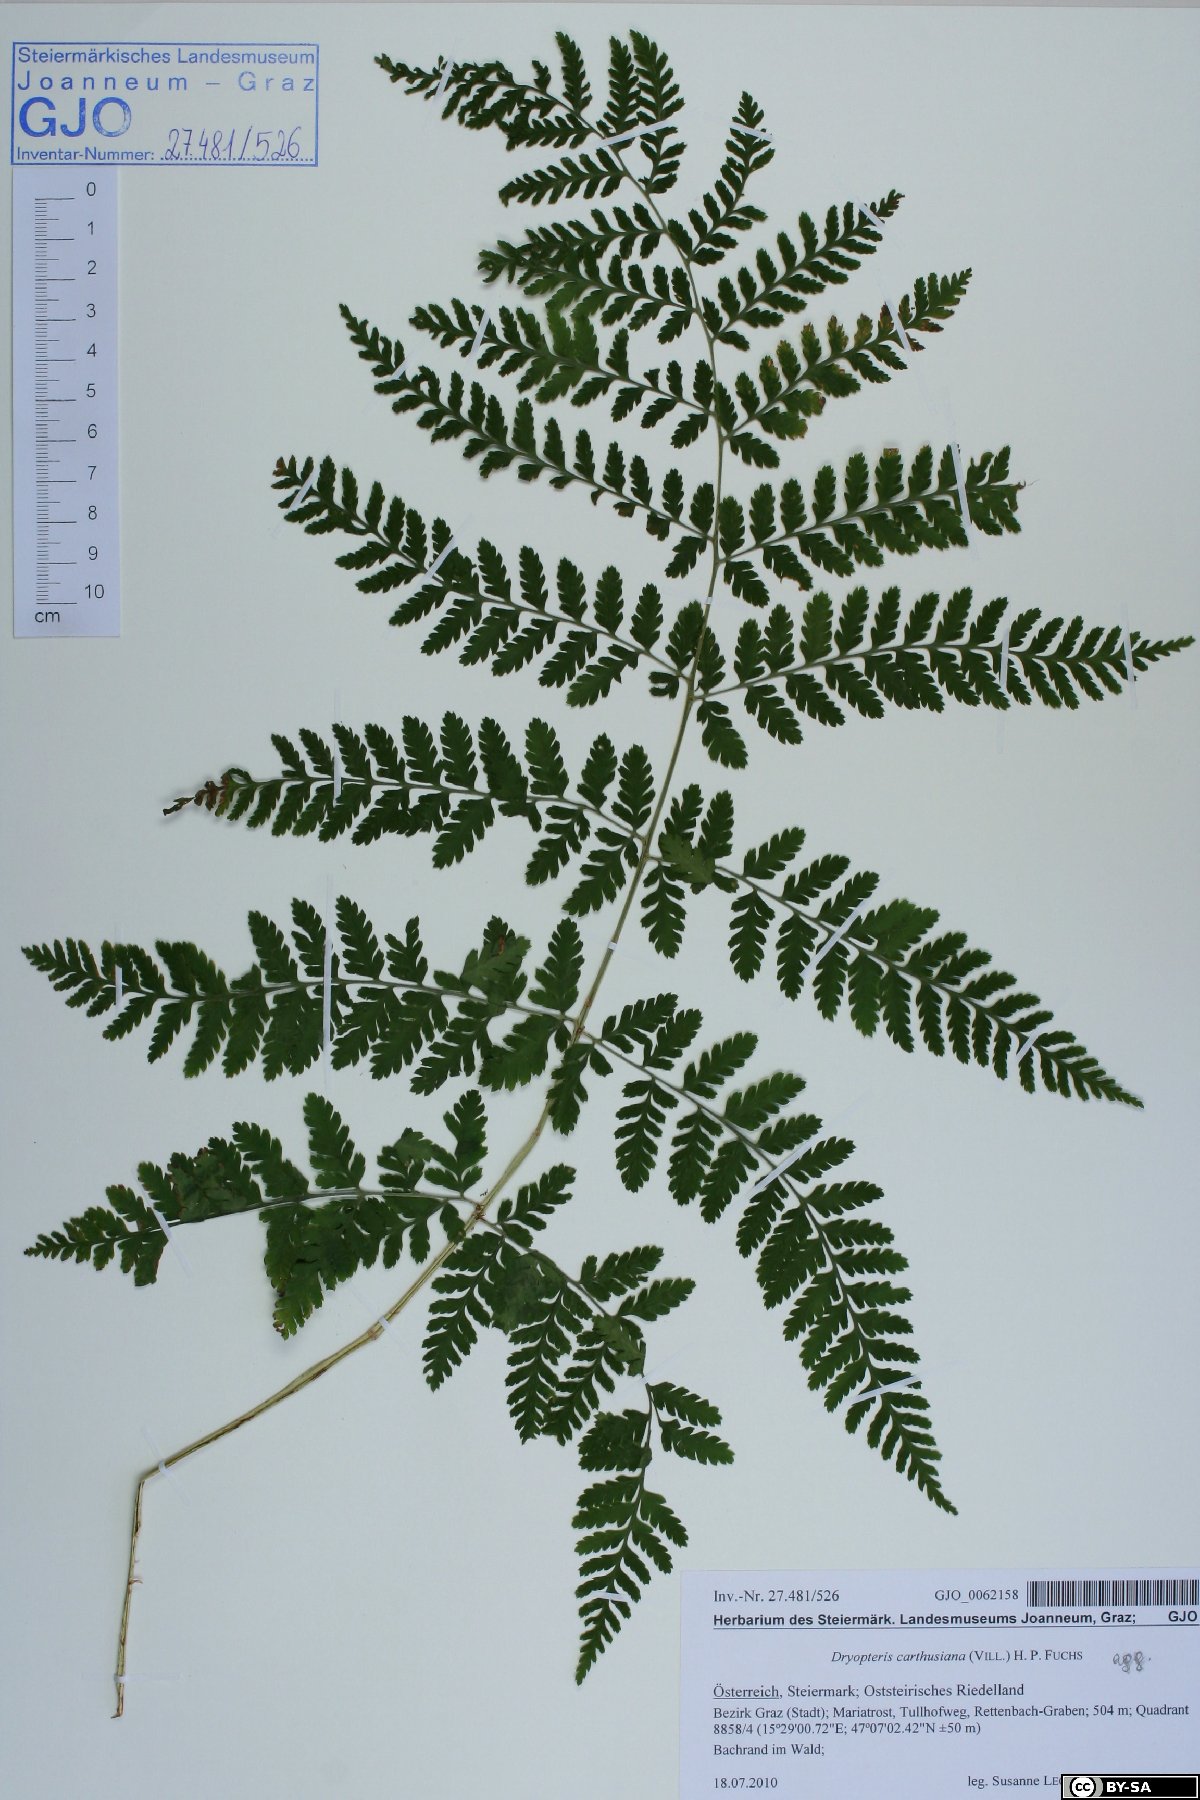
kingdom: Plantae
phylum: Tracheophyta
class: Polypodiopsida
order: Polypodiales
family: Dryopteridaceae
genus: Dryopteris
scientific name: Dryopteris carthusiana
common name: Narrow buckler-fern
